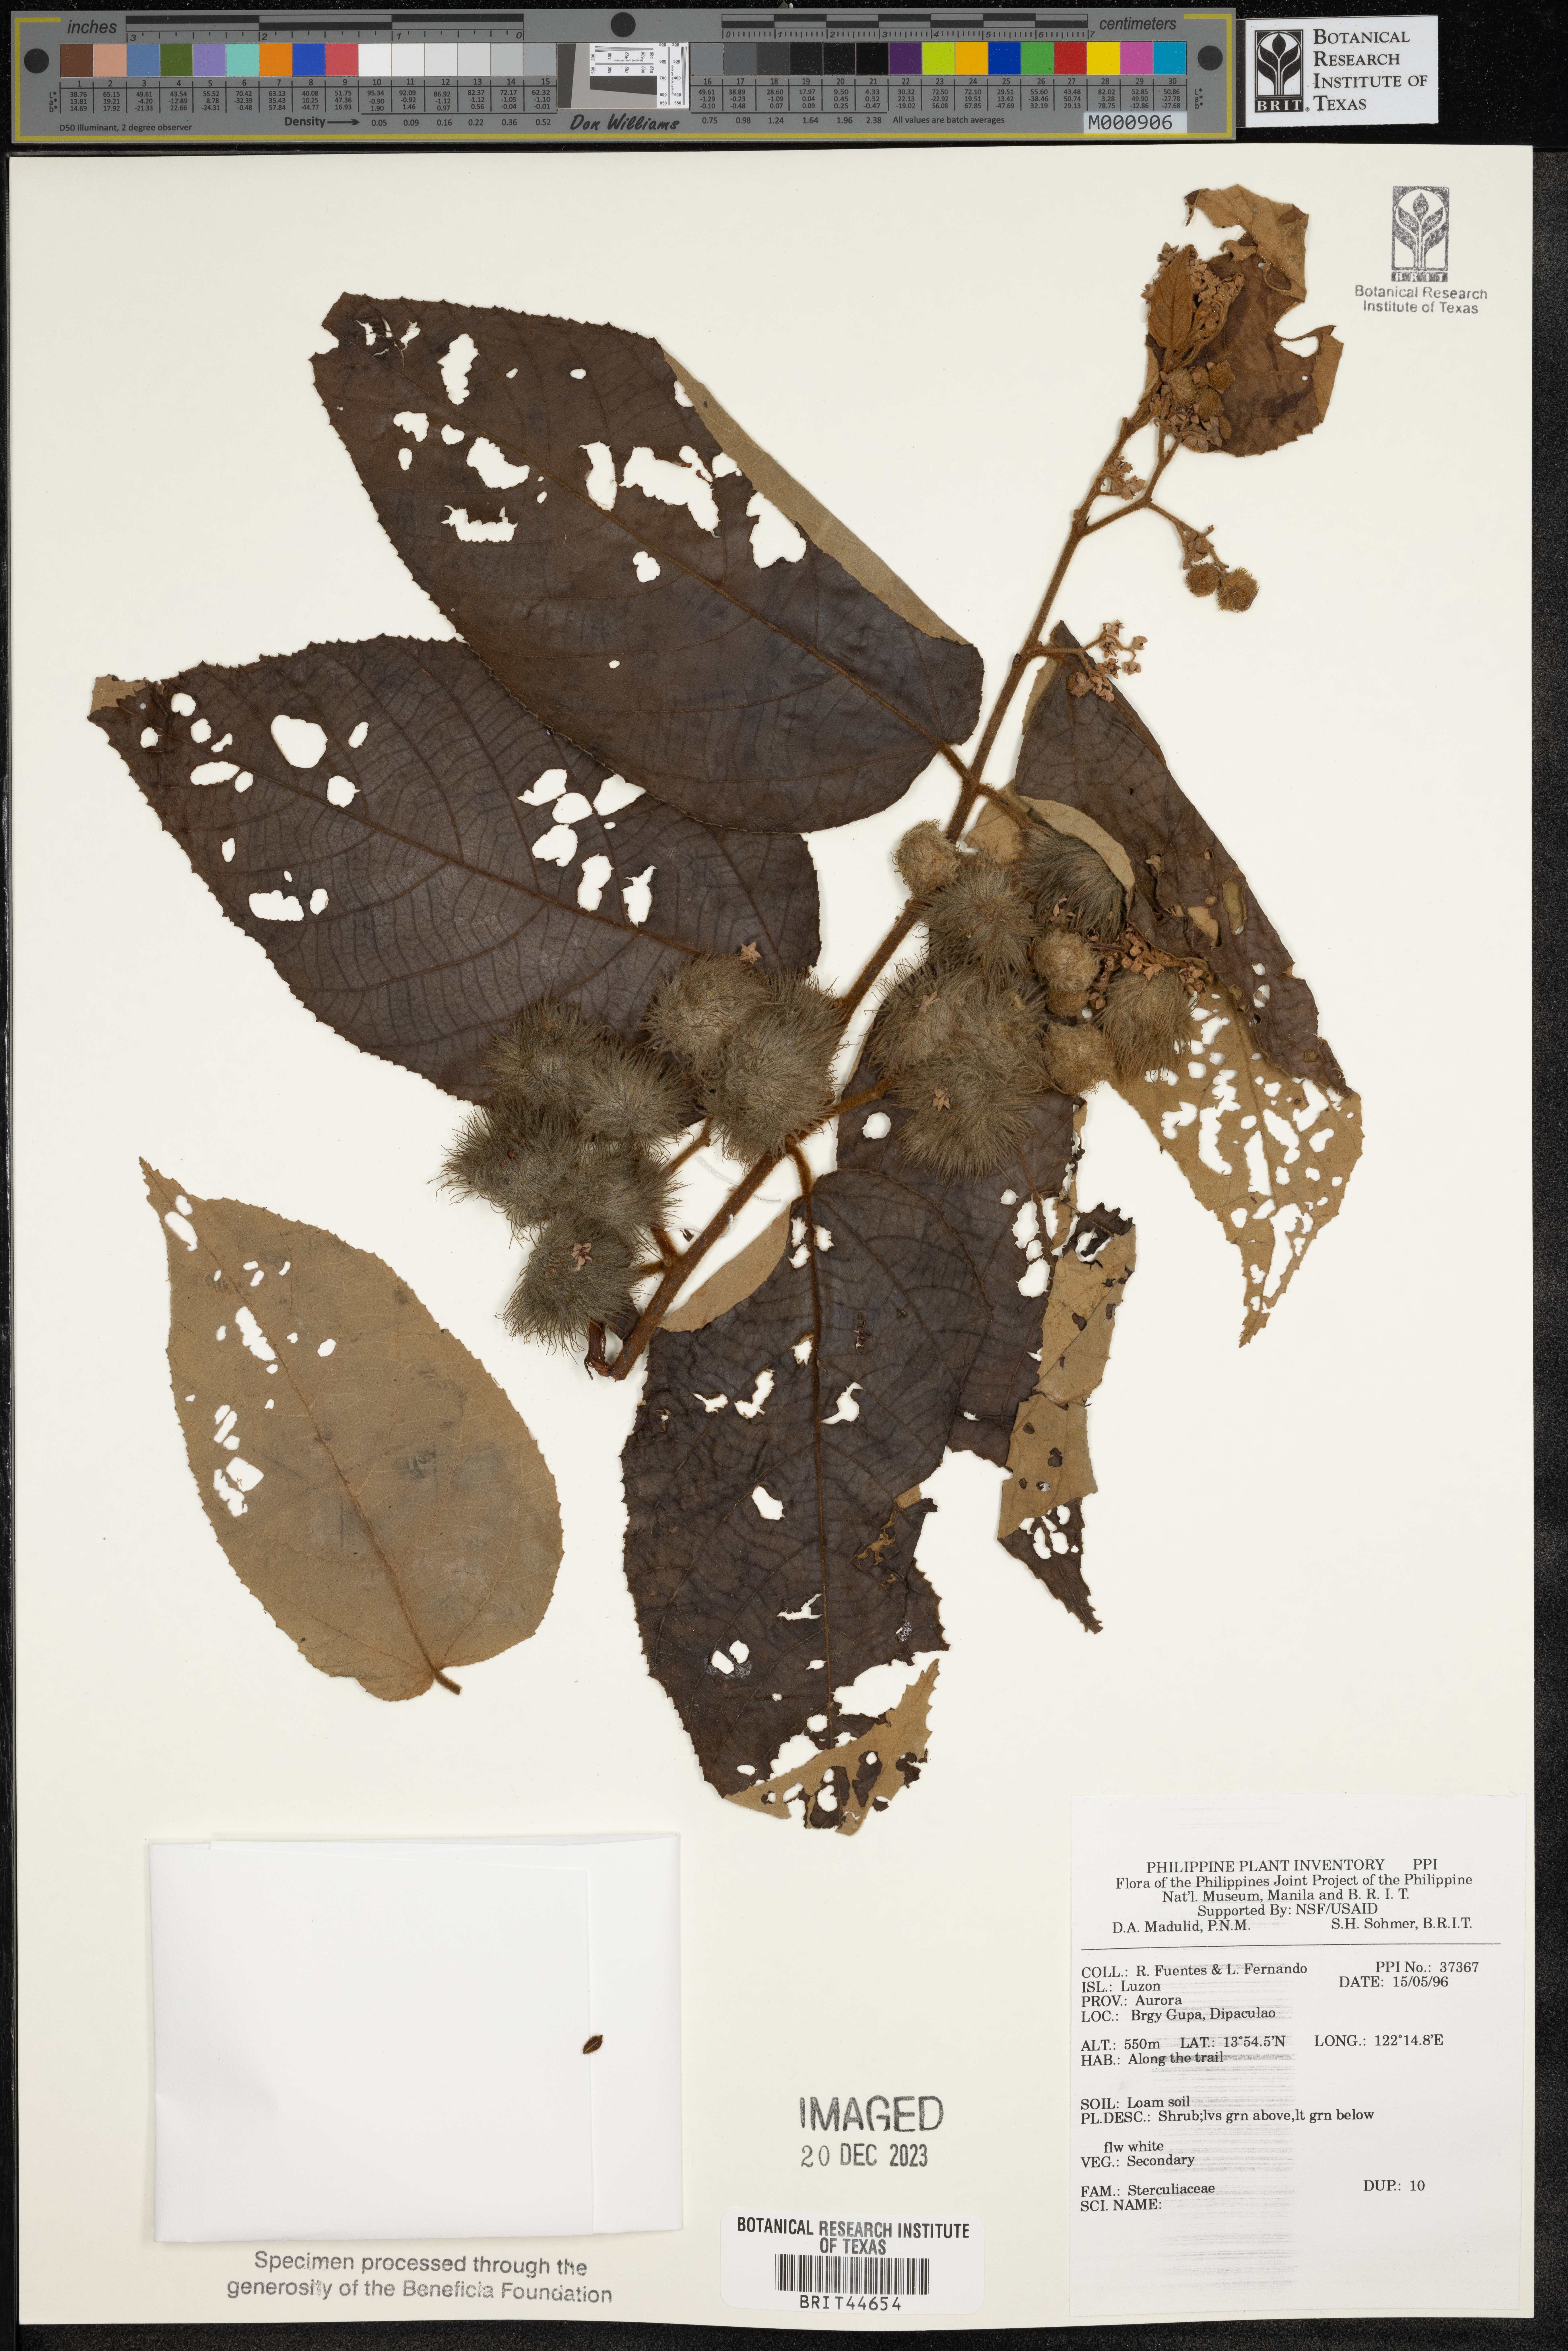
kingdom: Plantae
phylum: Tracheophyta
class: Magnoliopsida
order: Malvales
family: Sterculiaceae
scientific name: Sterculiaceae
